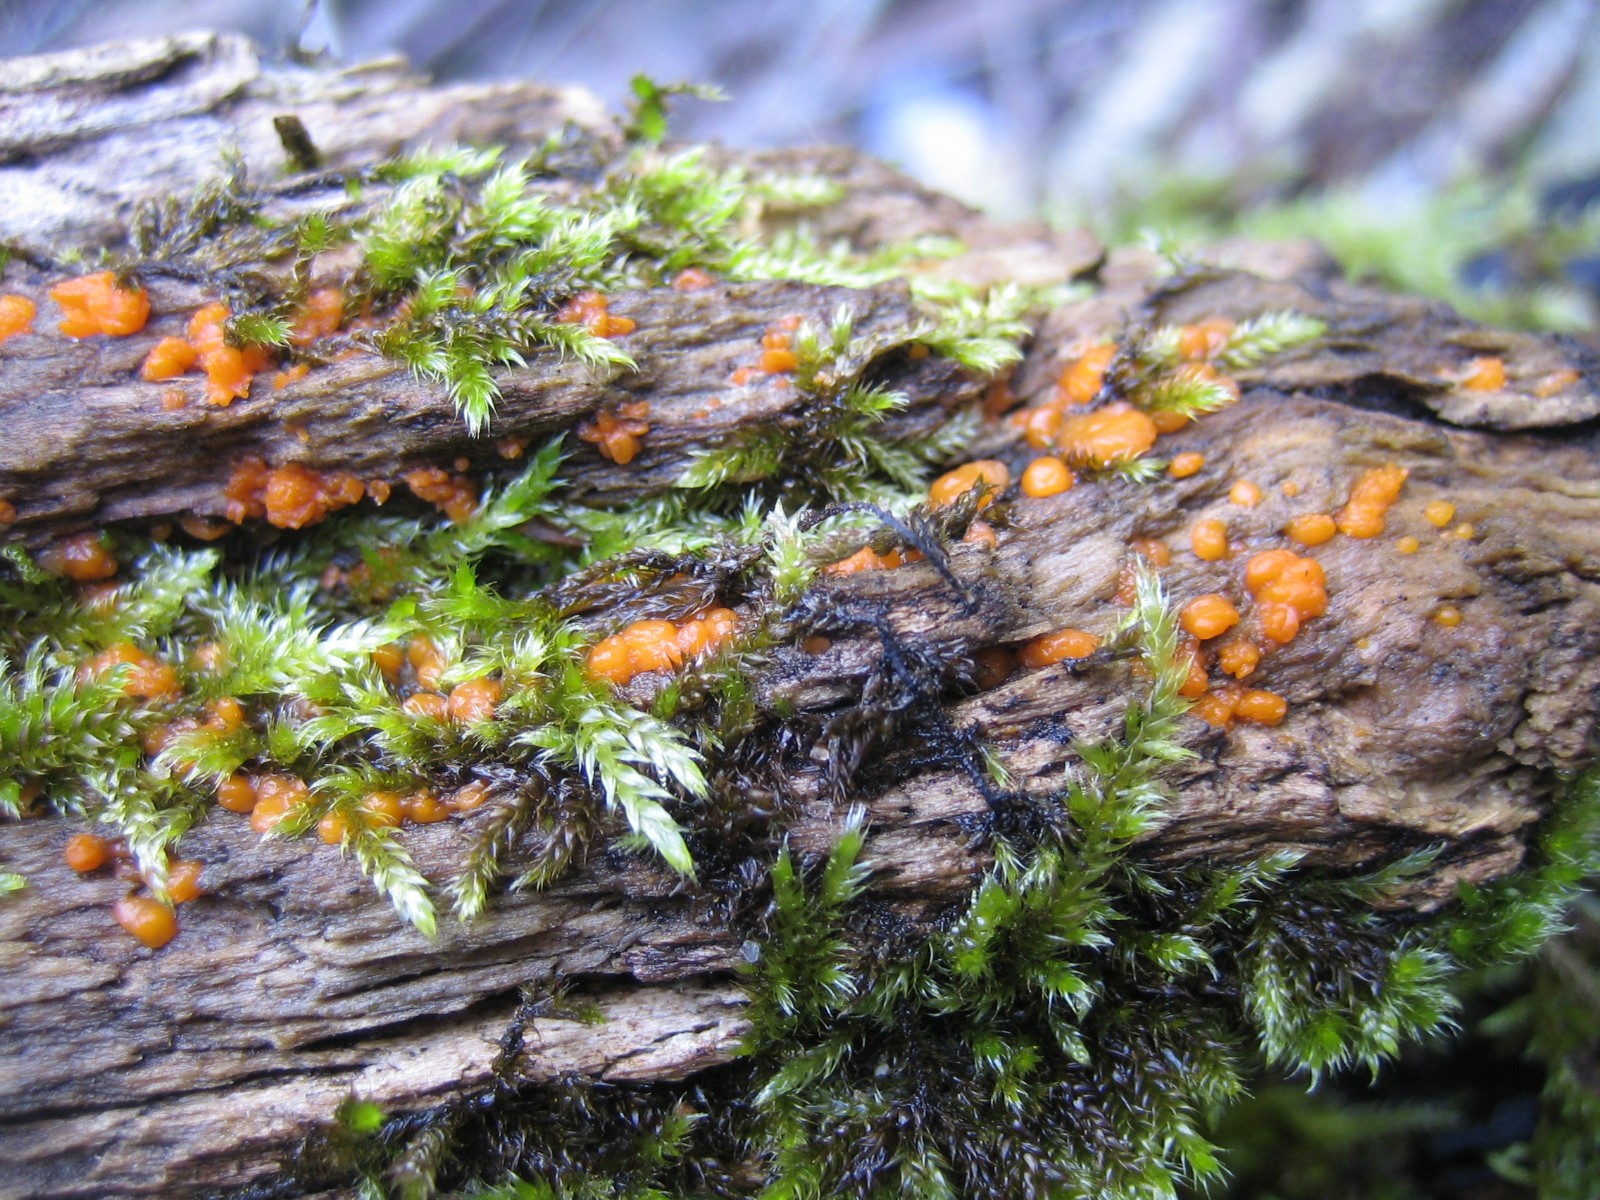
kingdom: Fungi
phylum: Basidiomycota
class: Dacrymycetes
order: Dacrymycetales
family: Dacrymycetaceae
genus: Dacrymyces
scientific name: Dacrymyces stillatus
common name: almindelig tåresvamp
